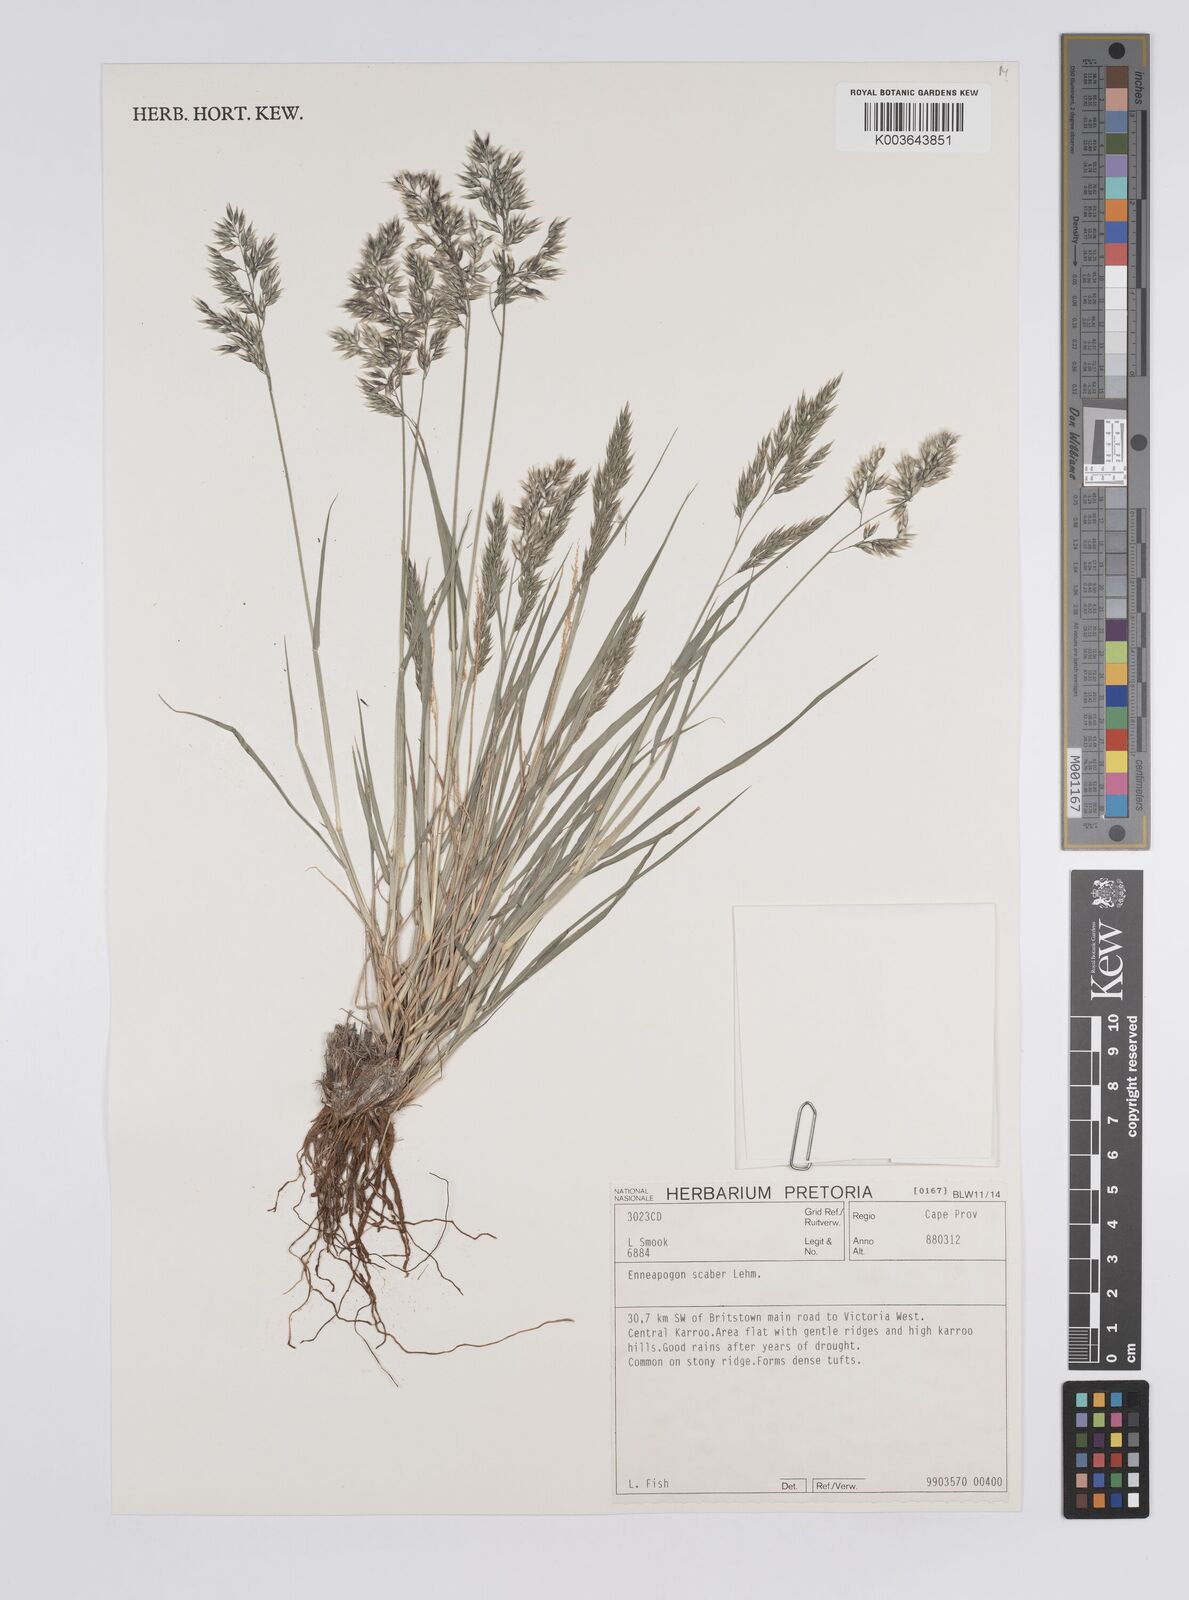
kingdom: Plantae
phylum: Tracheophyta
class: Liliopsida
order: Poales
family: Poaceae
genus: Enneapogon
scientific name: Enneapogon scaber
